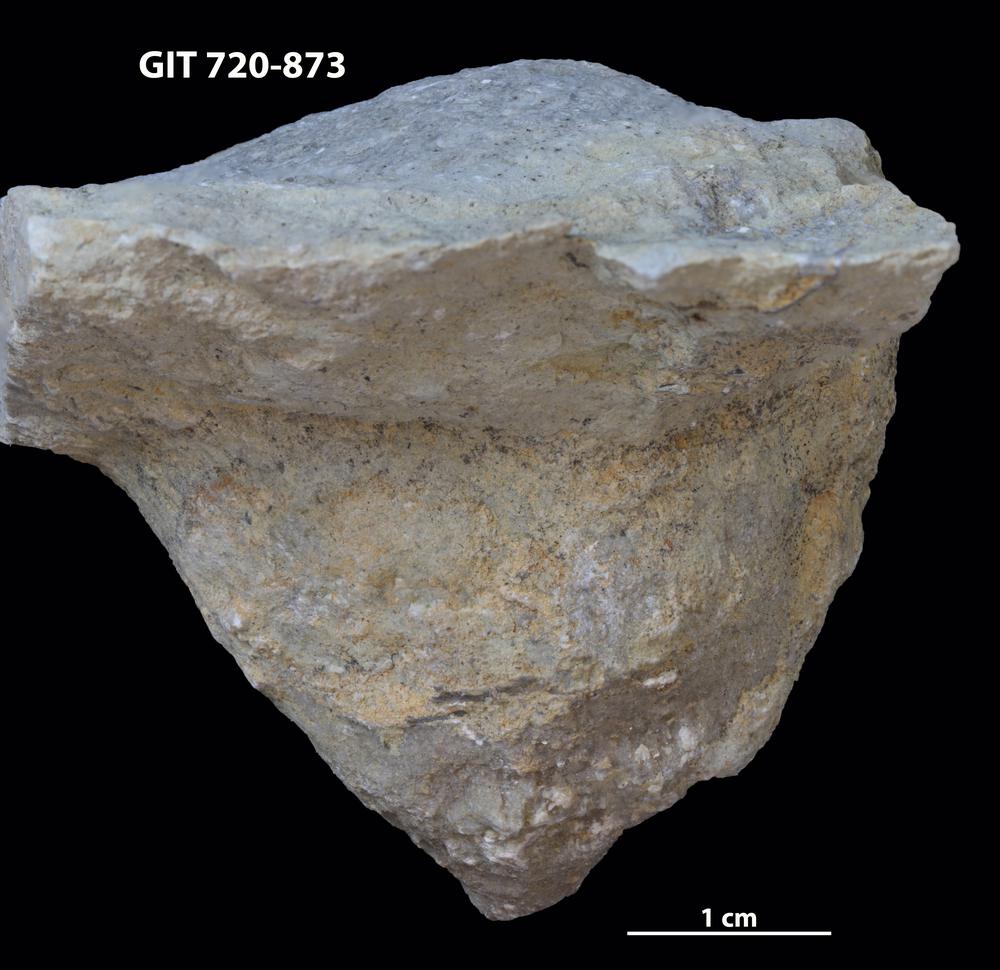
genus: Conichnus
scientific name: Conichnus
